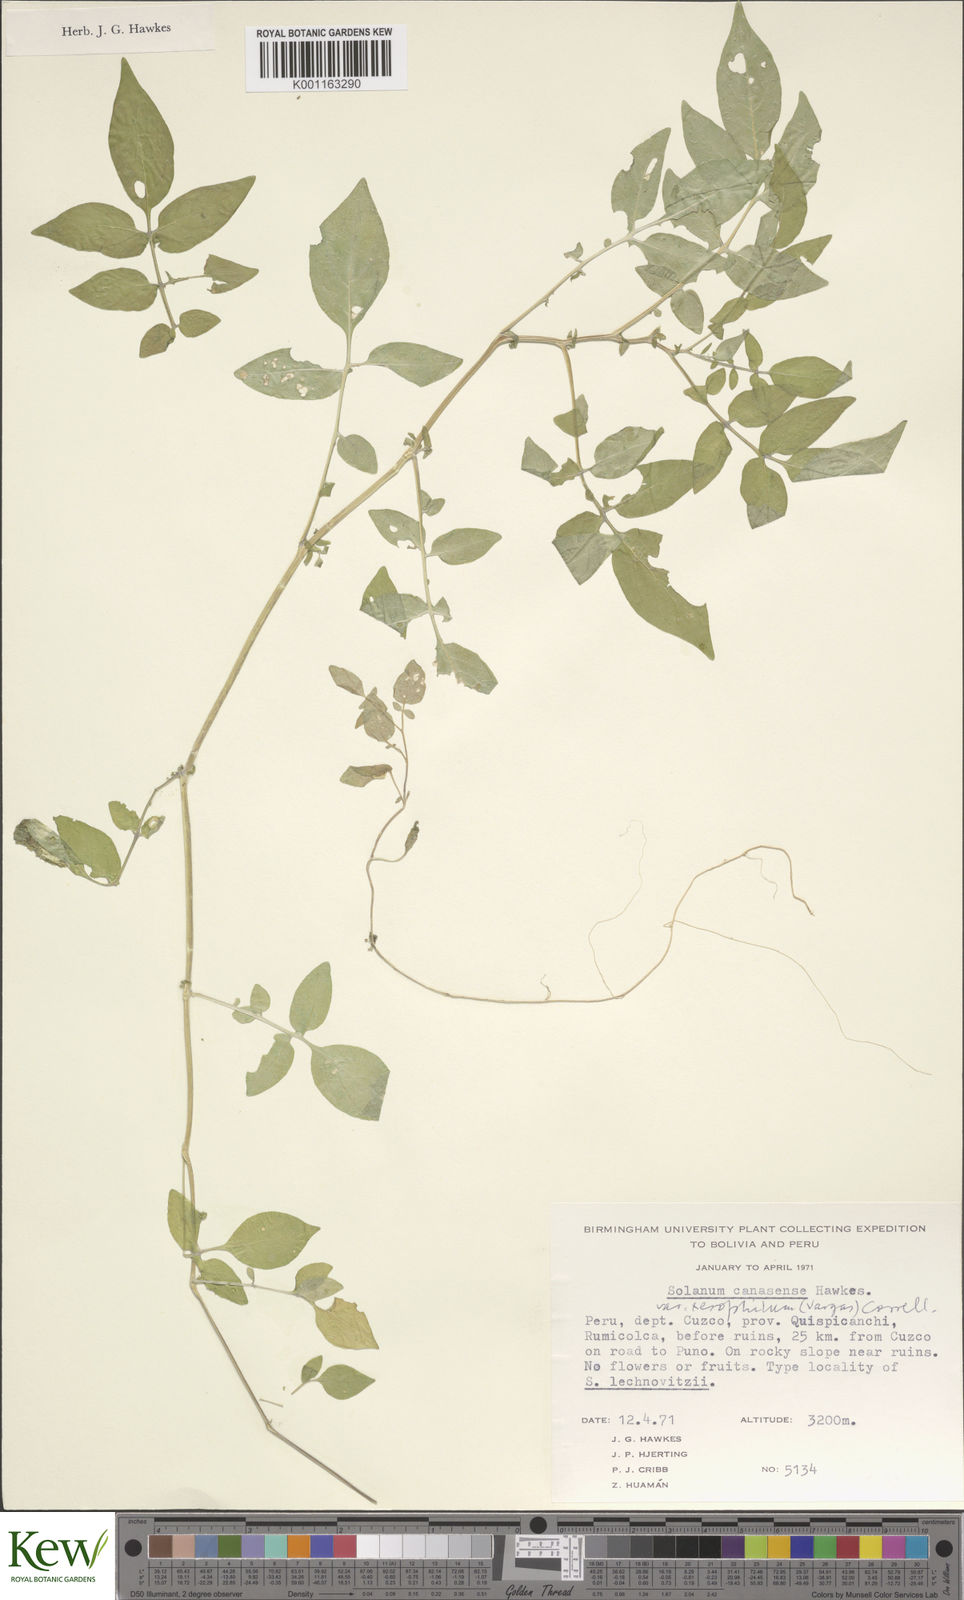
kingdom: Plantae
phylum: Tracheophyta
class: Magnoliopsida
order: Solanales
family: Solanaceae
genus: Solanum
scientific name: Solanum candolleanum
